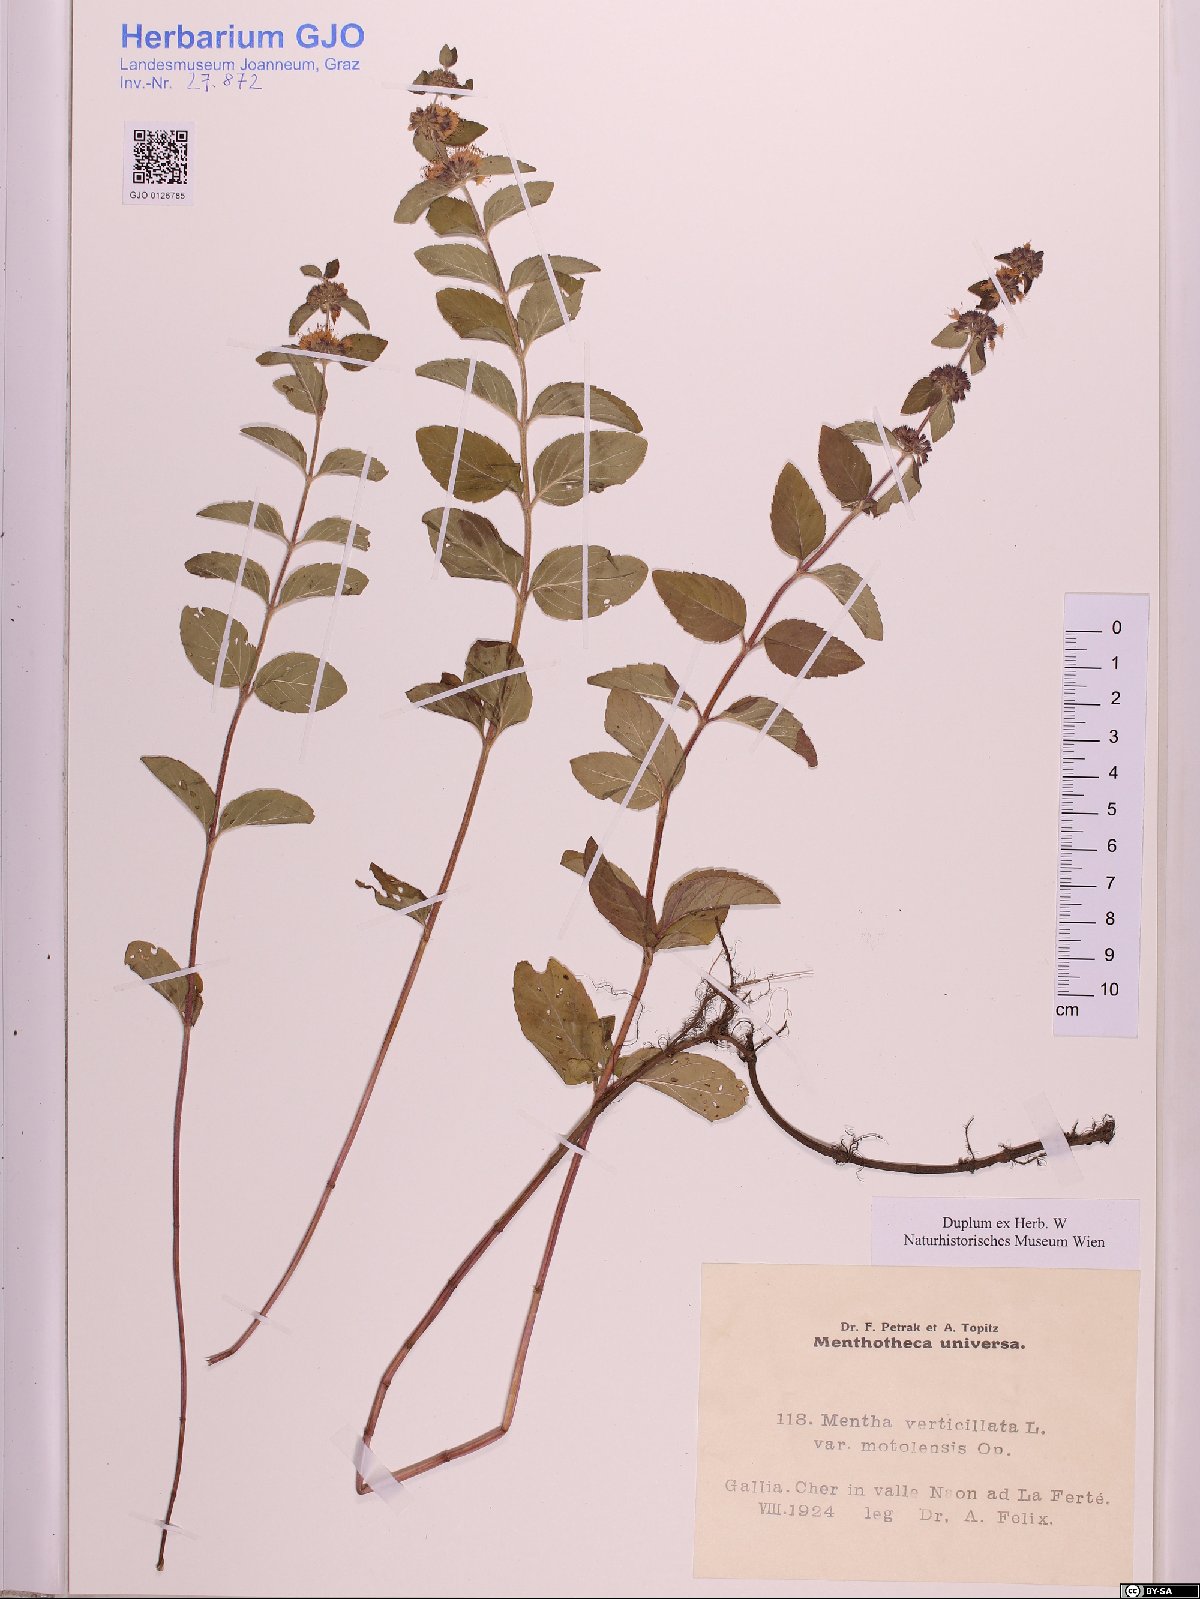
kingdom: Plantae
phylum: Tracheophyta
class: Magnoliopsida
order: Lamiales
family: Lamiaceae
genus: Mentha
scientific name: Mentha verticillata
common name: Mint
